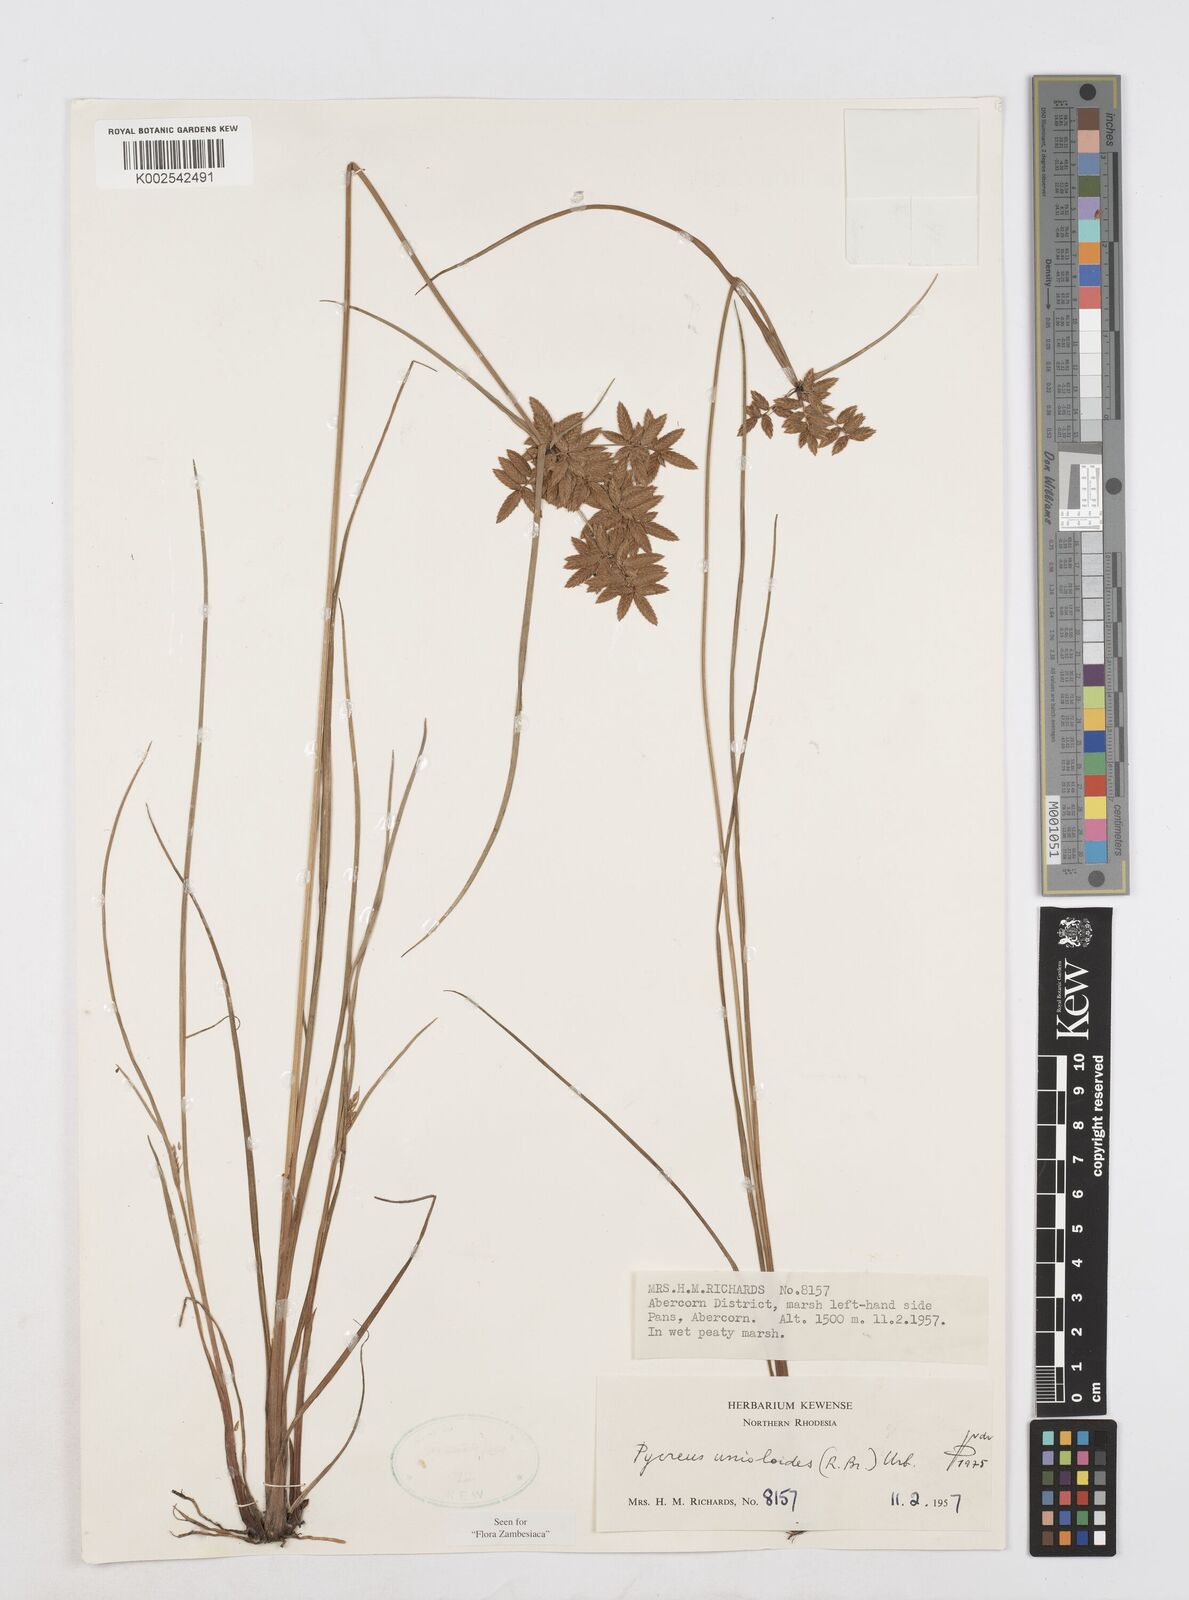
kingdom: Plantae
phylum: Tracheophyta
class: Liliopsida
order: Poales
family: Cyperaceae
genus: Cyperus
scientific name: Cyperus unioloides
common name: Uniola flatsedge
